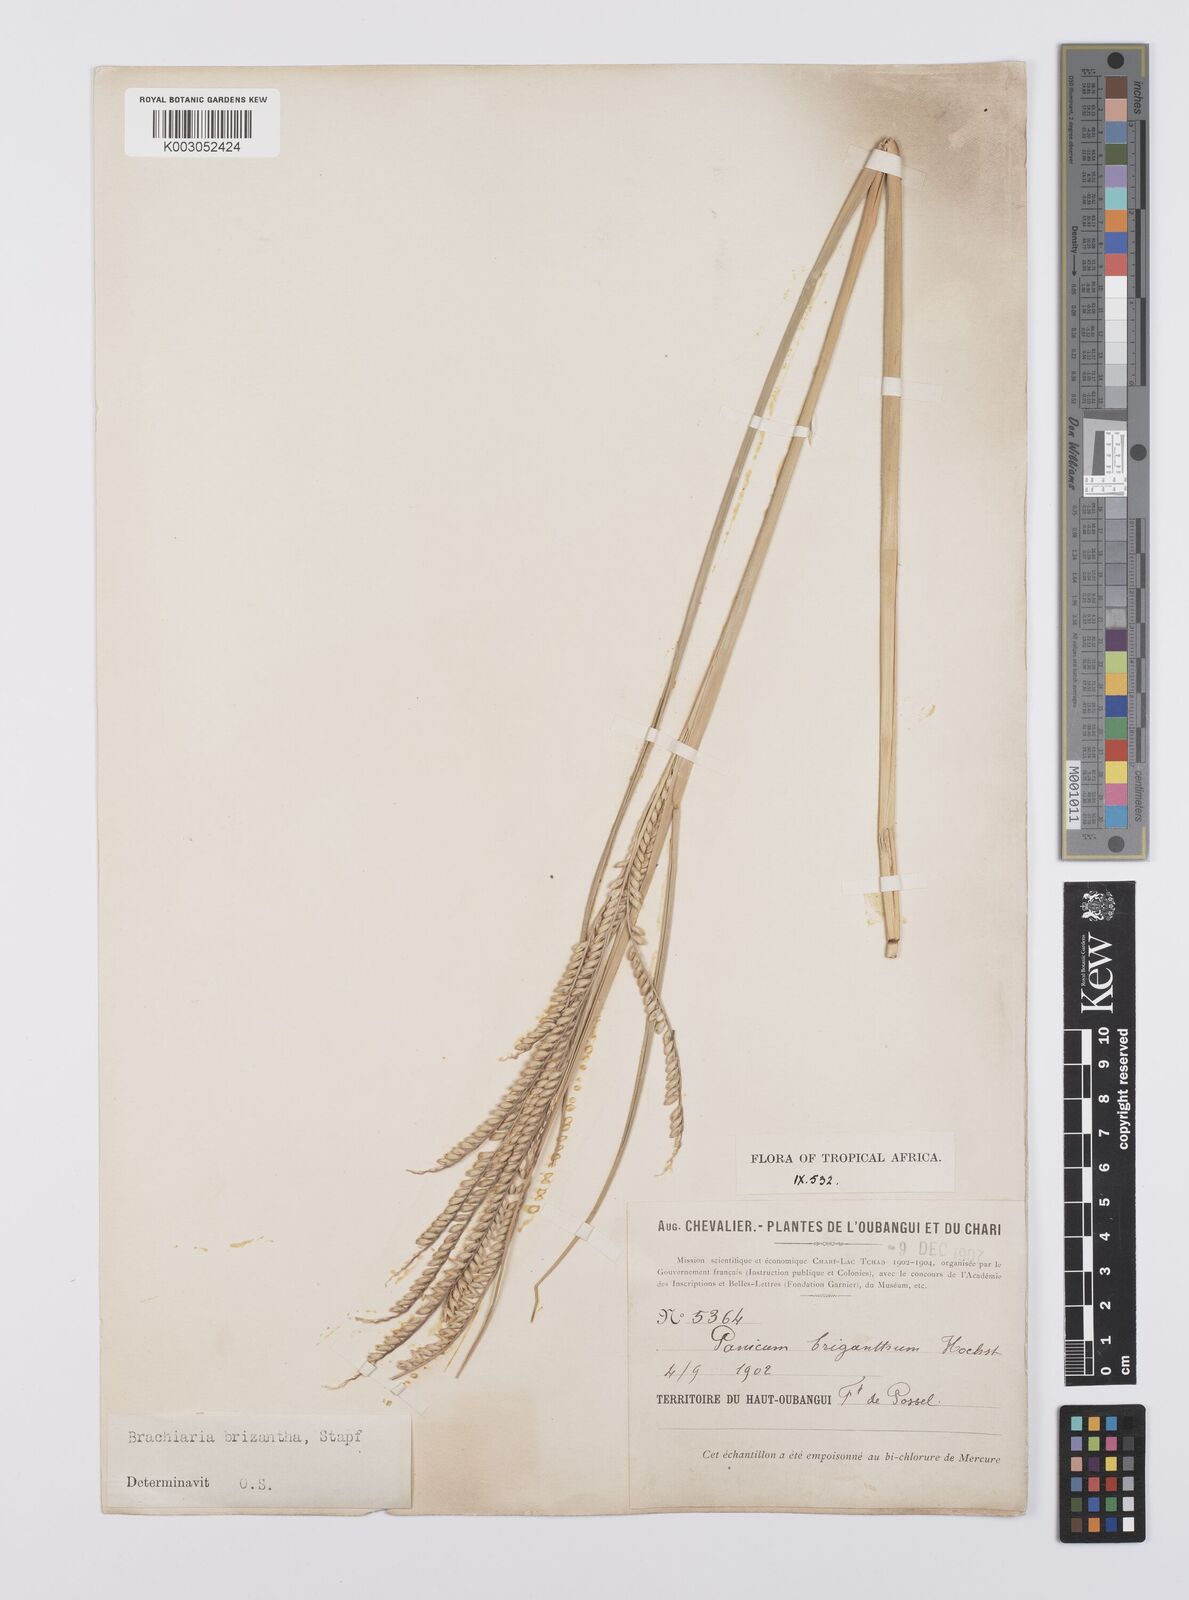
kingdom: Plantae
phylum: Tracheophyta
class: Liliopsida
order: Poales
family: Poaceae
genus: Urochloa
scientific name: Urochloa brizantha
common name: Palisade signalgrass
